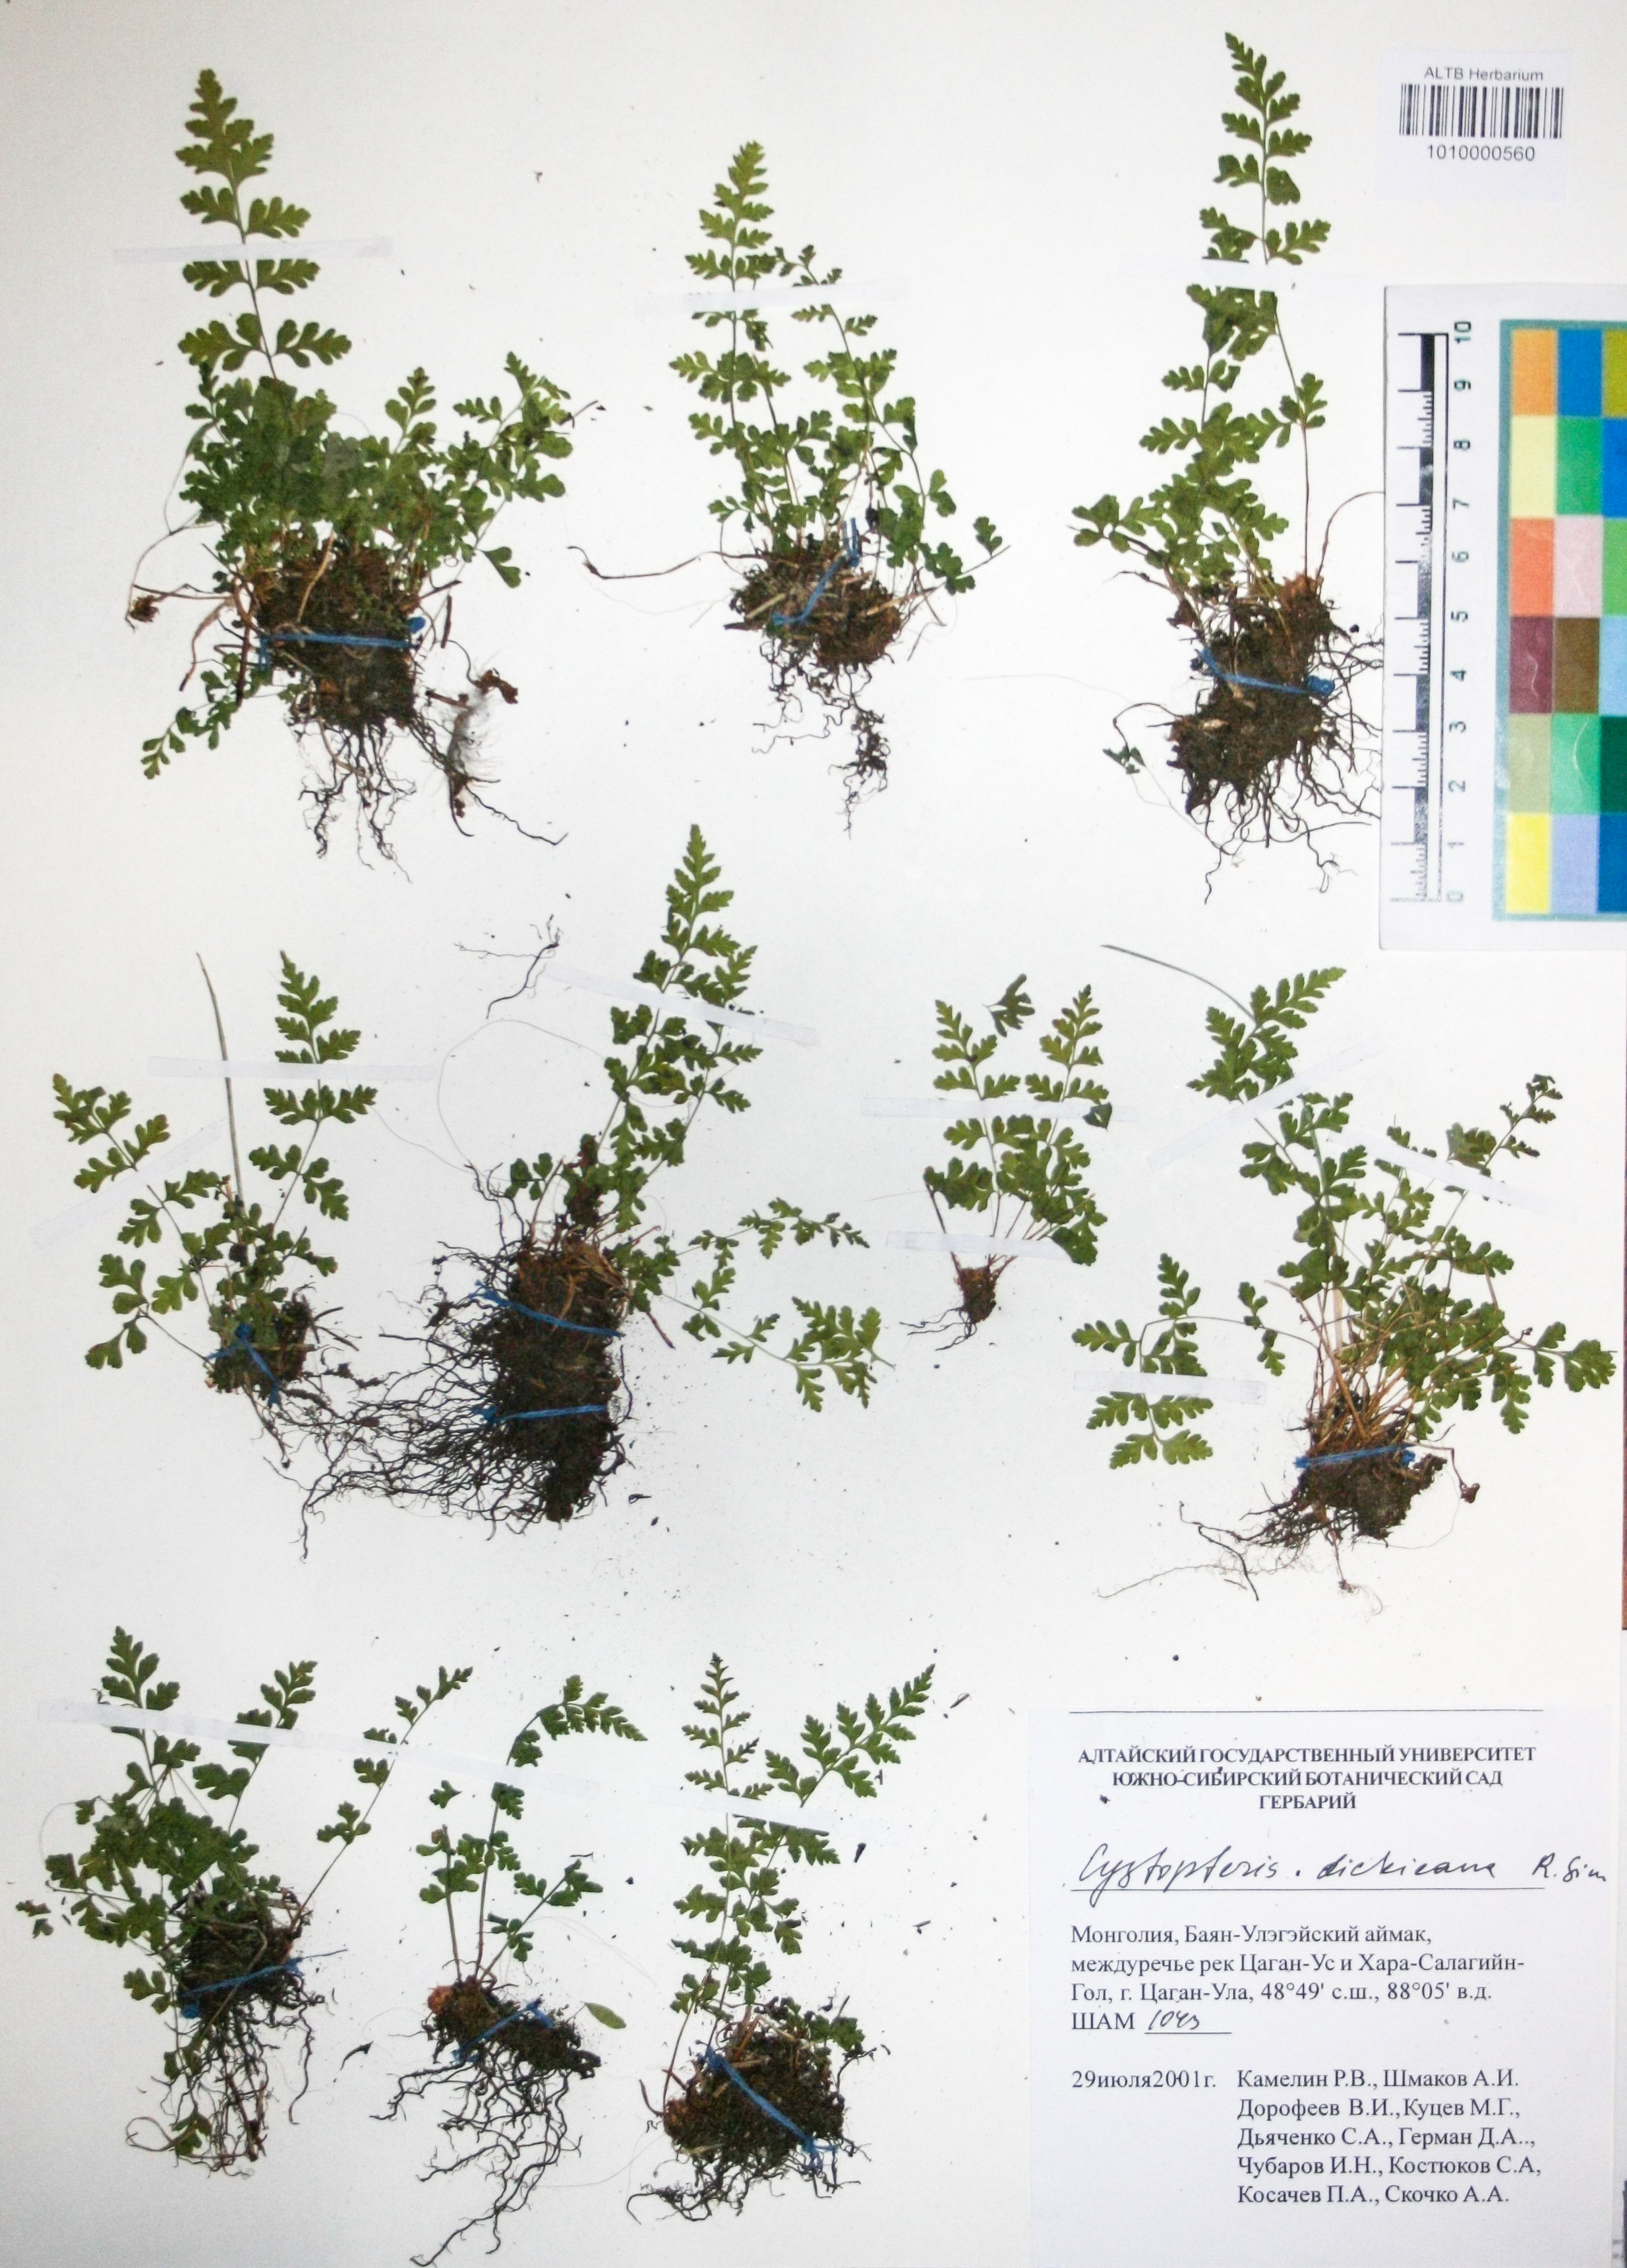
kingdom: Plantae
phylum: Tracheophyta
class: Polypodiopsida
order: Polypodiales
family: Cystopteridaceae
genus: Cystopteris
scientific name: Cystopteris dickieana
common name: Dickie's bladder-fern
